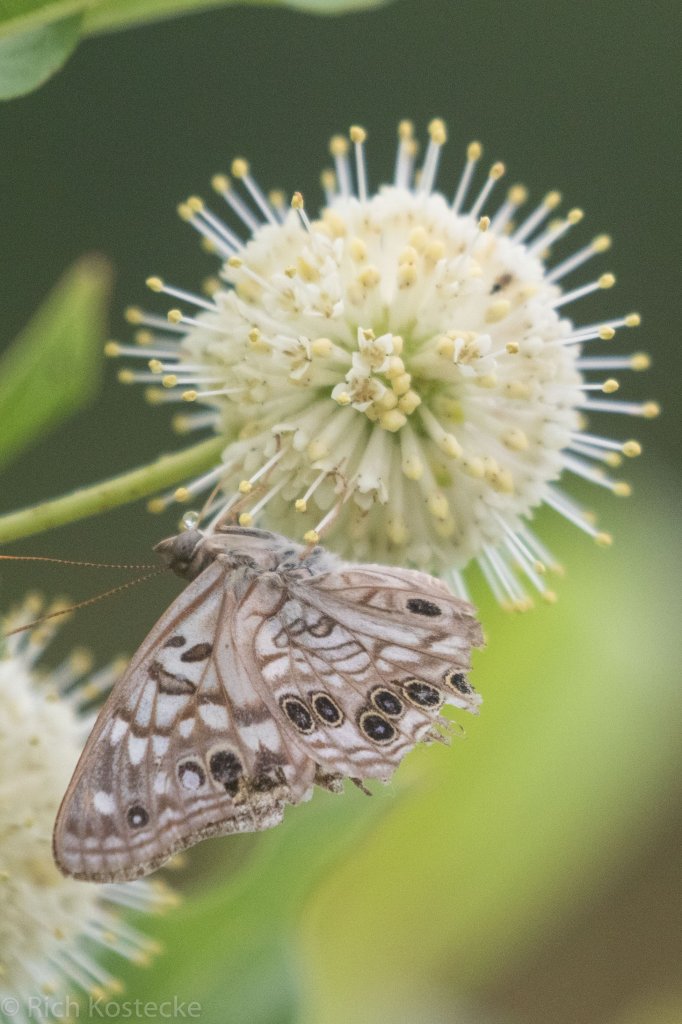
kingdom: Animalia
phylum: Arthropoda
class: Insecta
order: Lepidoptera
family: Nymphalidae
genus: Asterocampa
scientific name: Asterocampa celtis
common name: Hackberry Emperor
